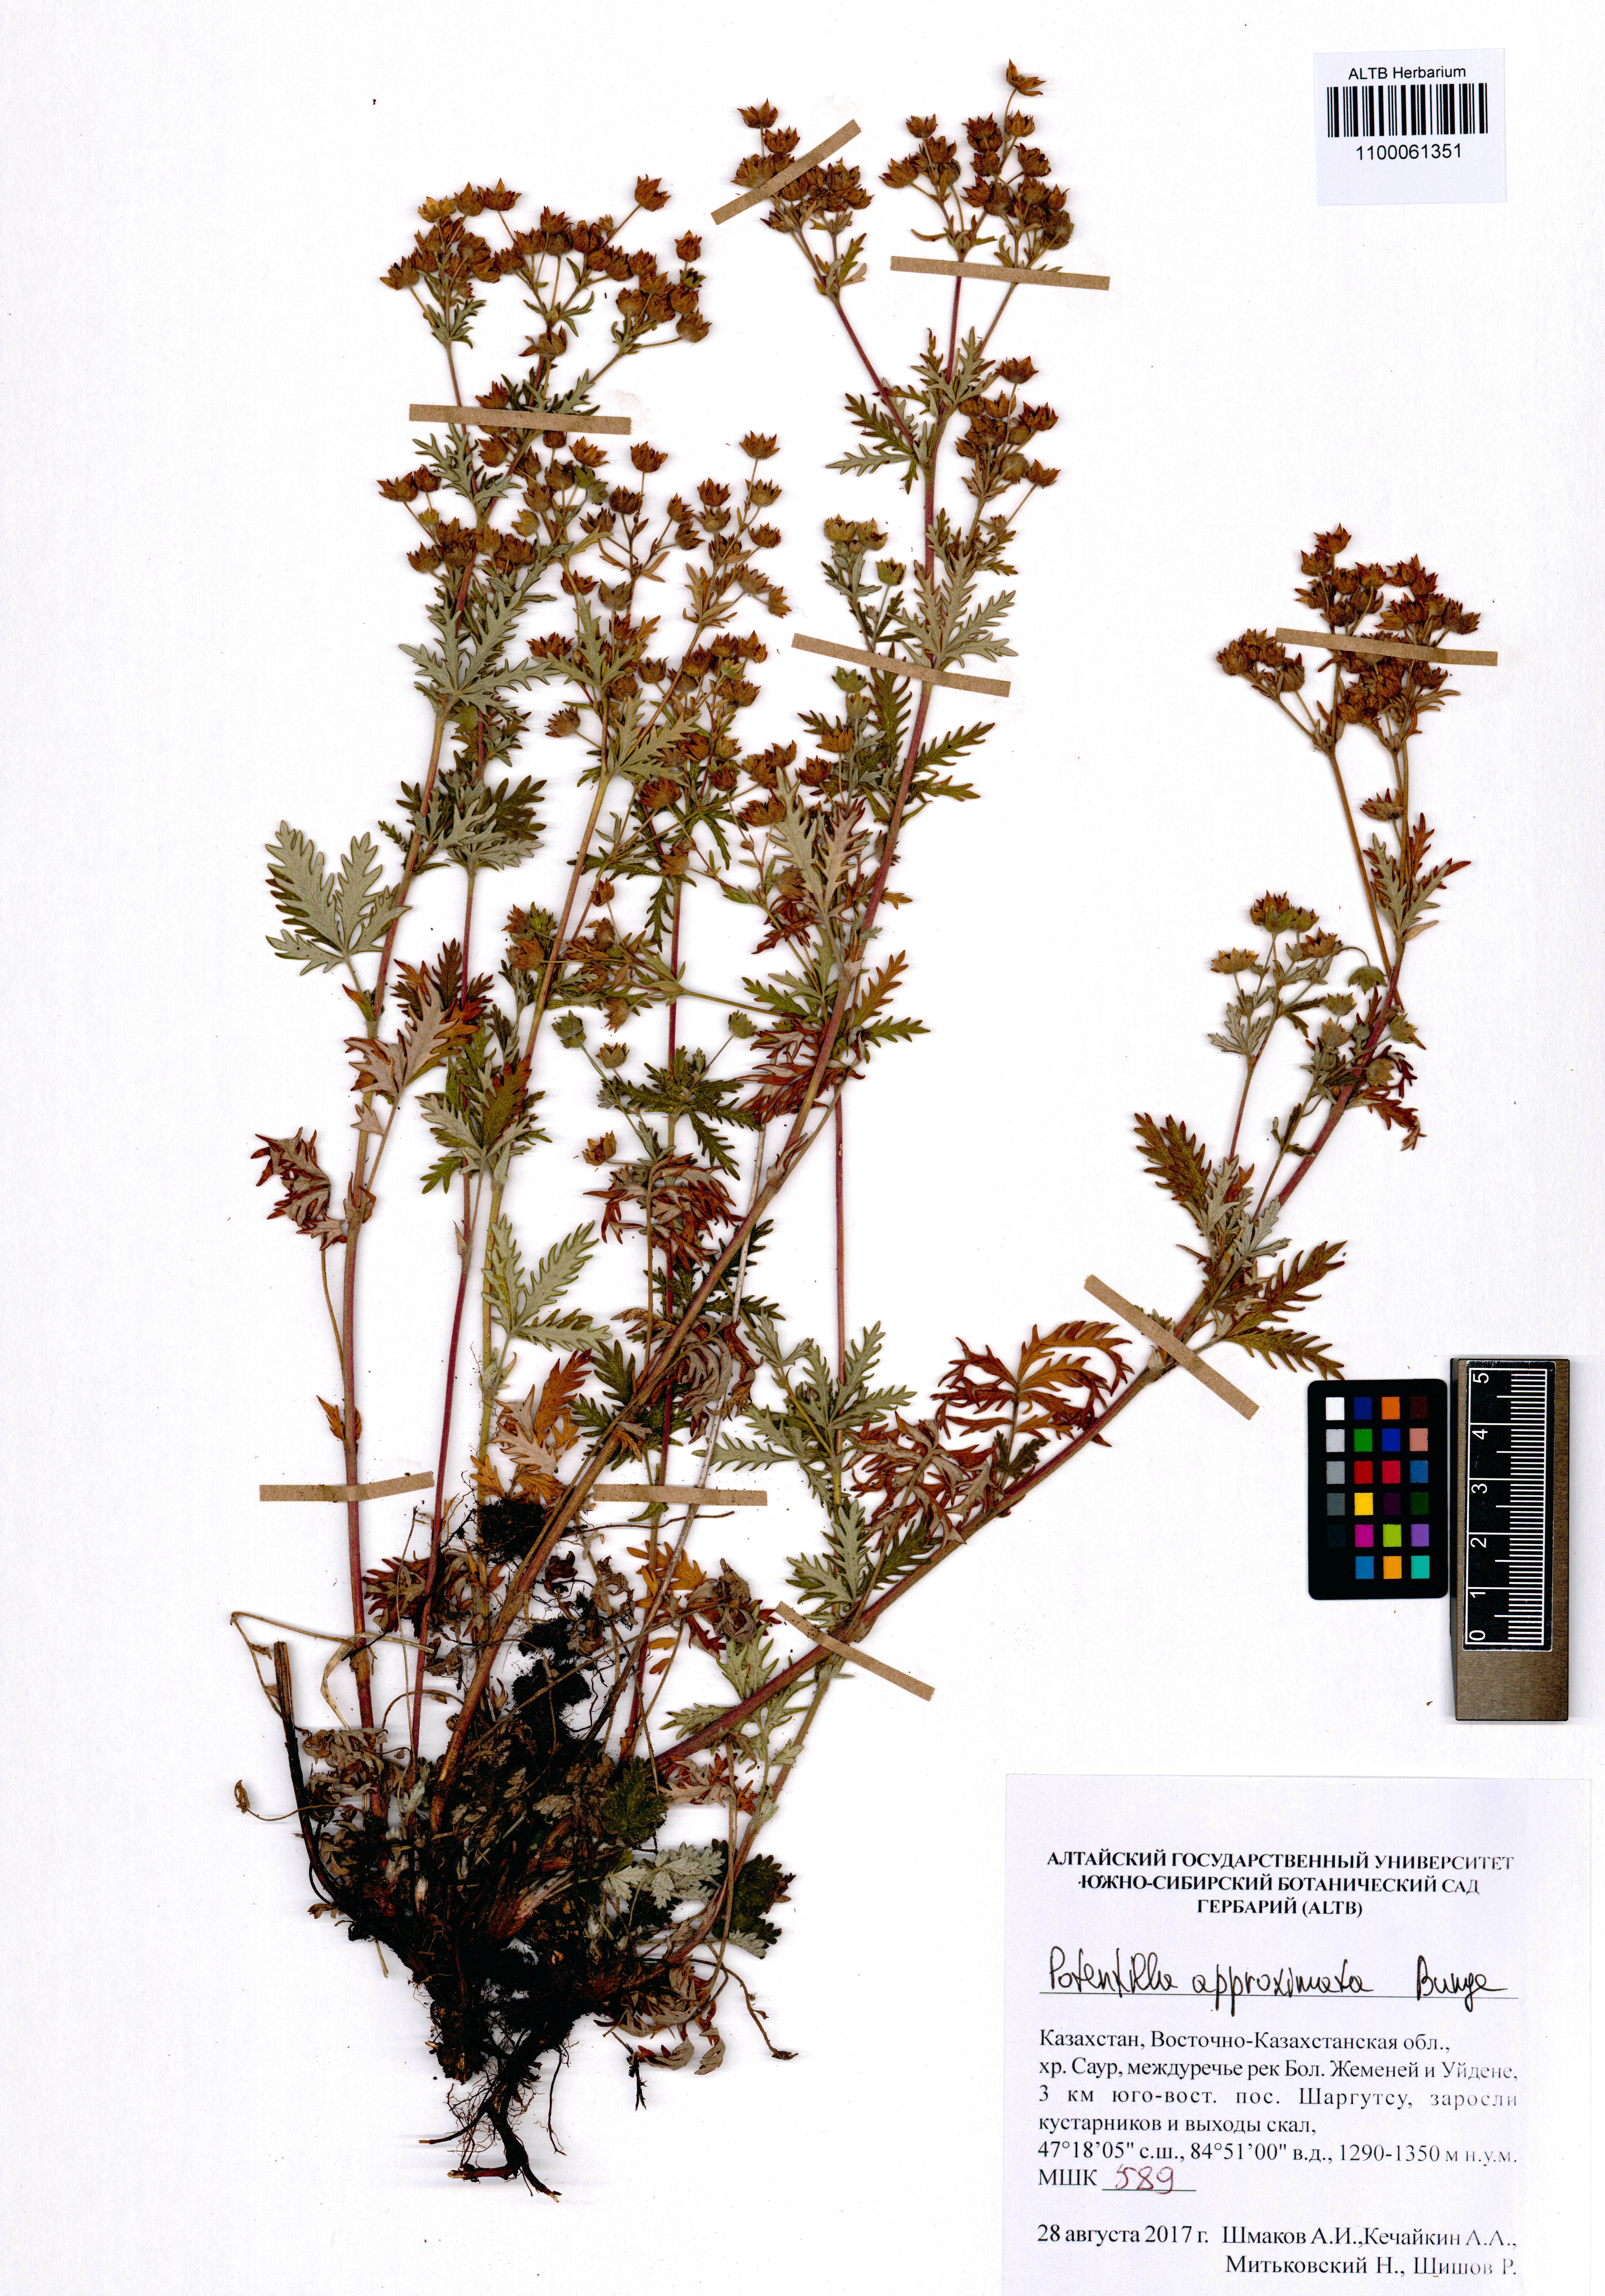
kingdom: Plantae
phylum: Tracheophyta
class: Magnoliopsida
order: Rosales
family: Rosaceae
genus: Potentilla
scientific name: Potentilla conferta
